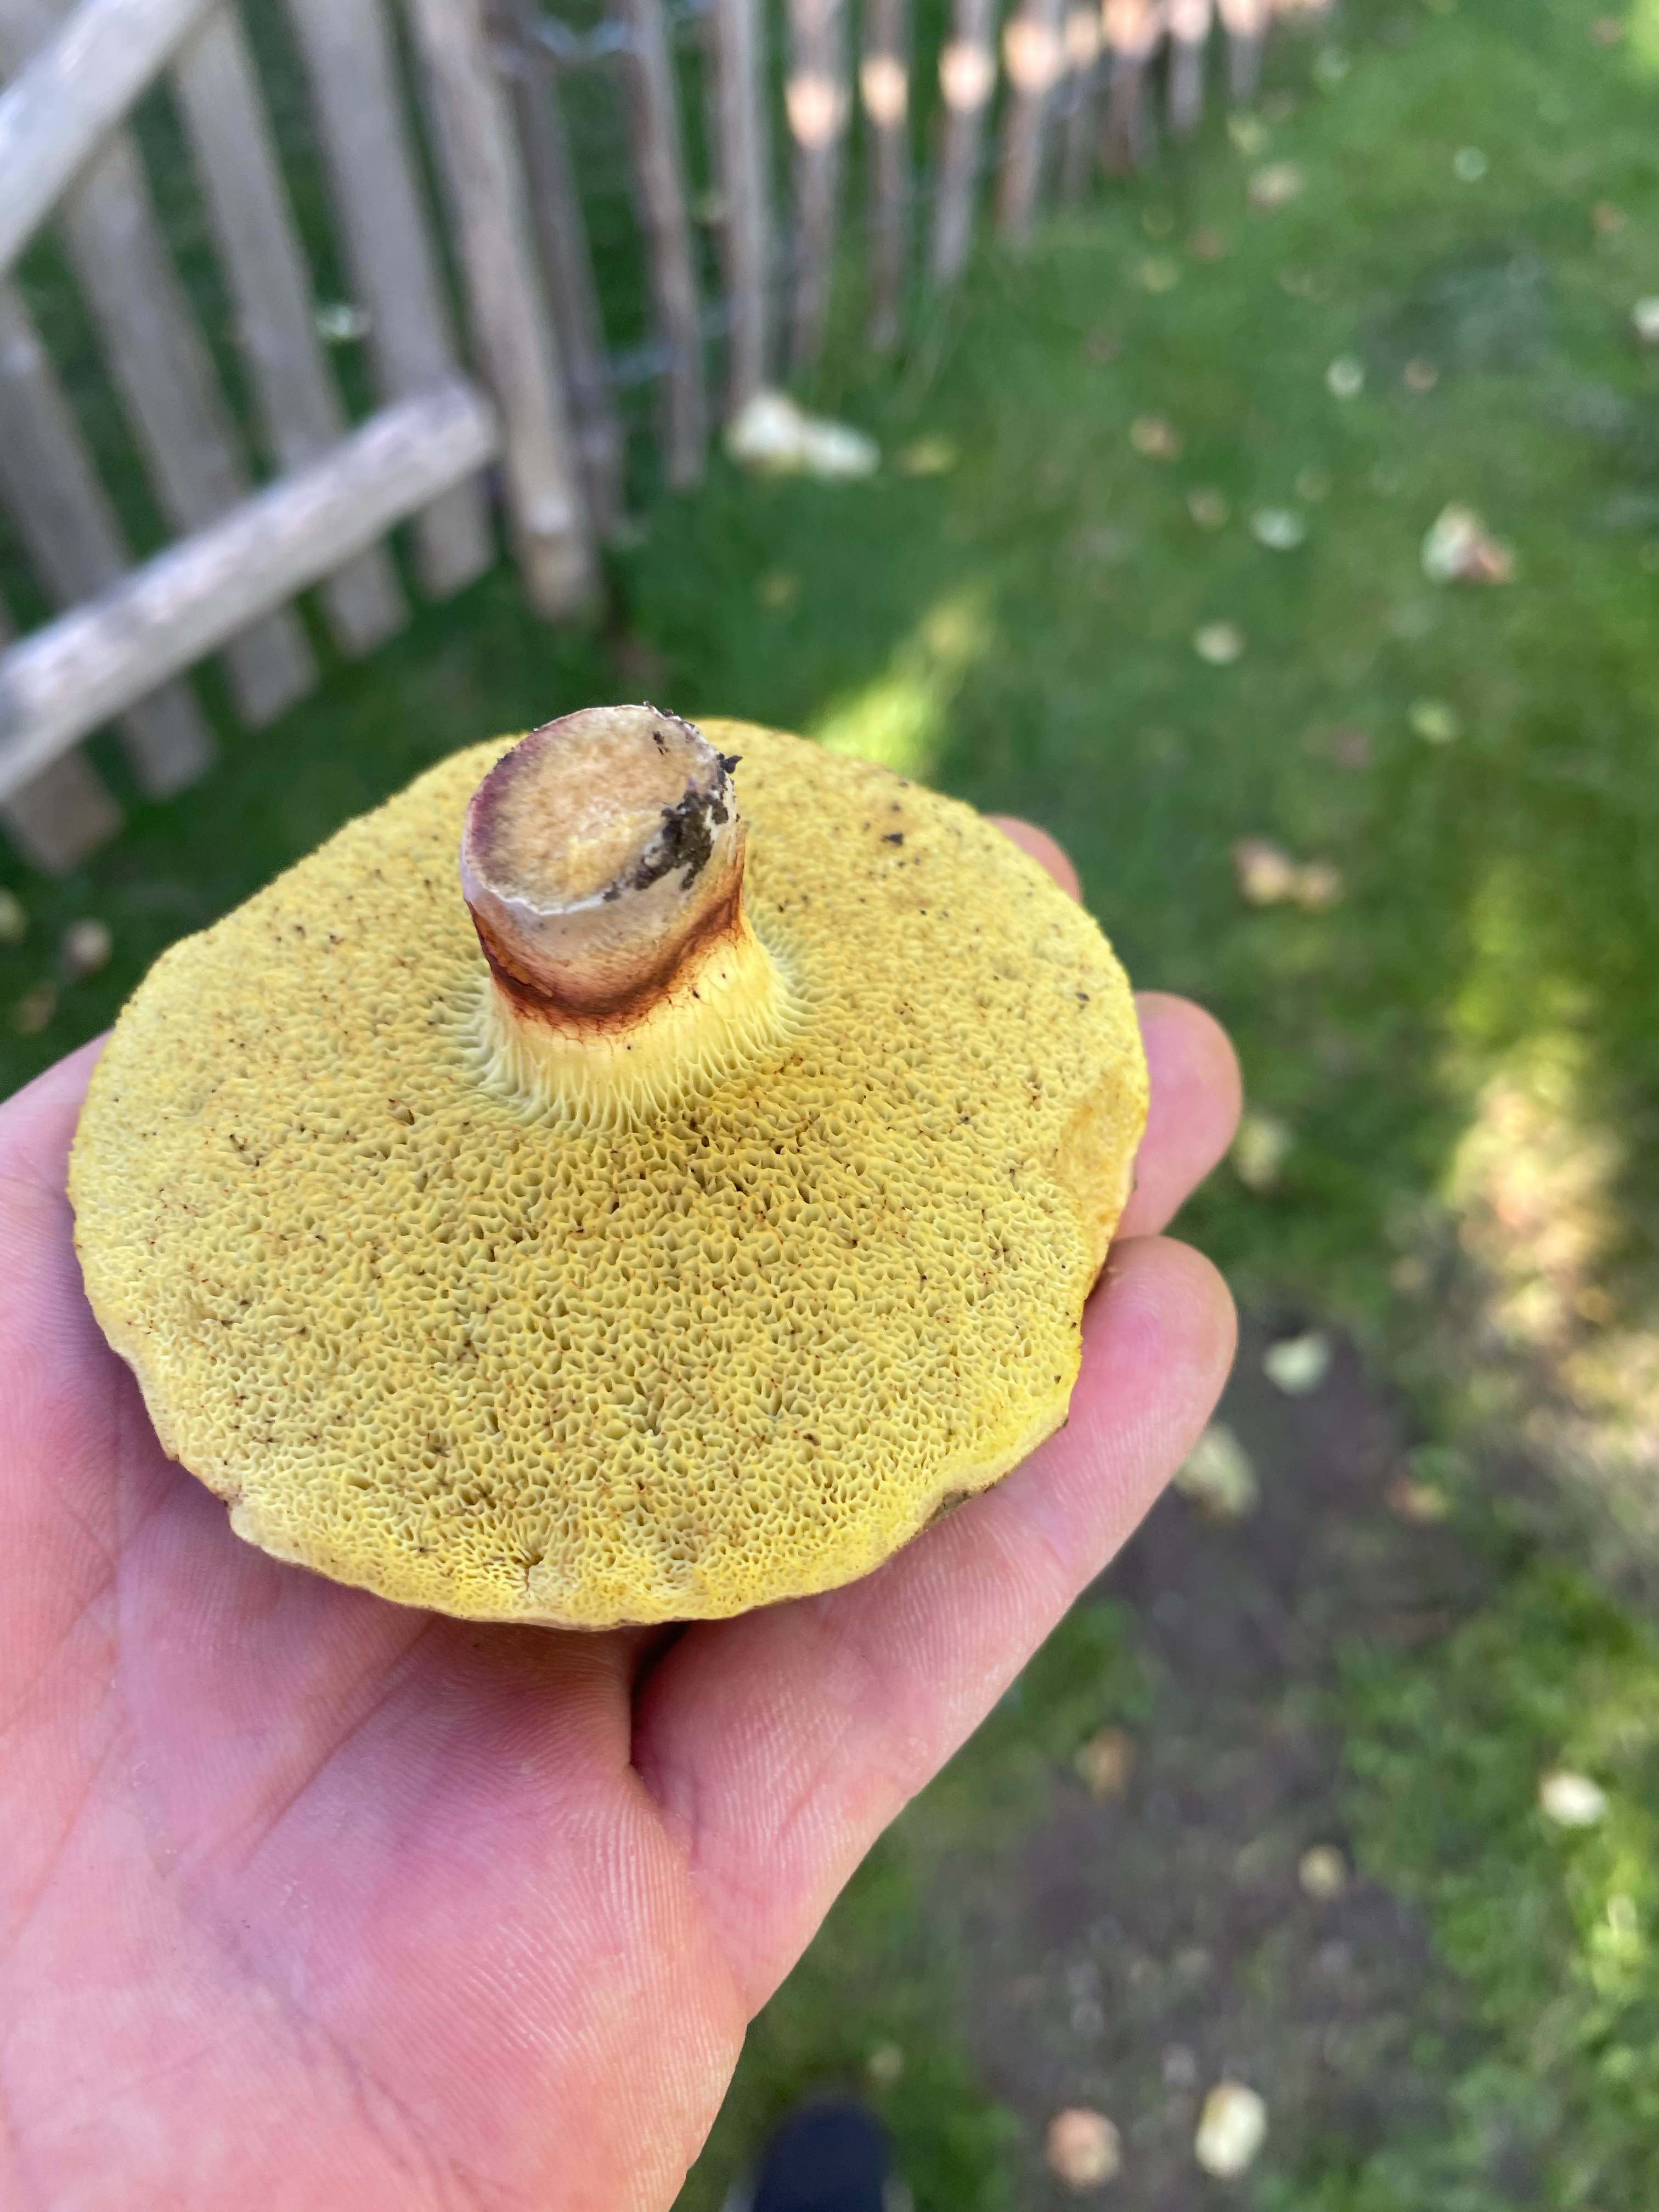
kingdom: Fungi
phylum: Basidiomycota
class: Agaricomycetes
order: Boletales
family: Boletaceae
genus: Xerocomellus
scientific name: Xerocomellus
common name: dværgrørhat
